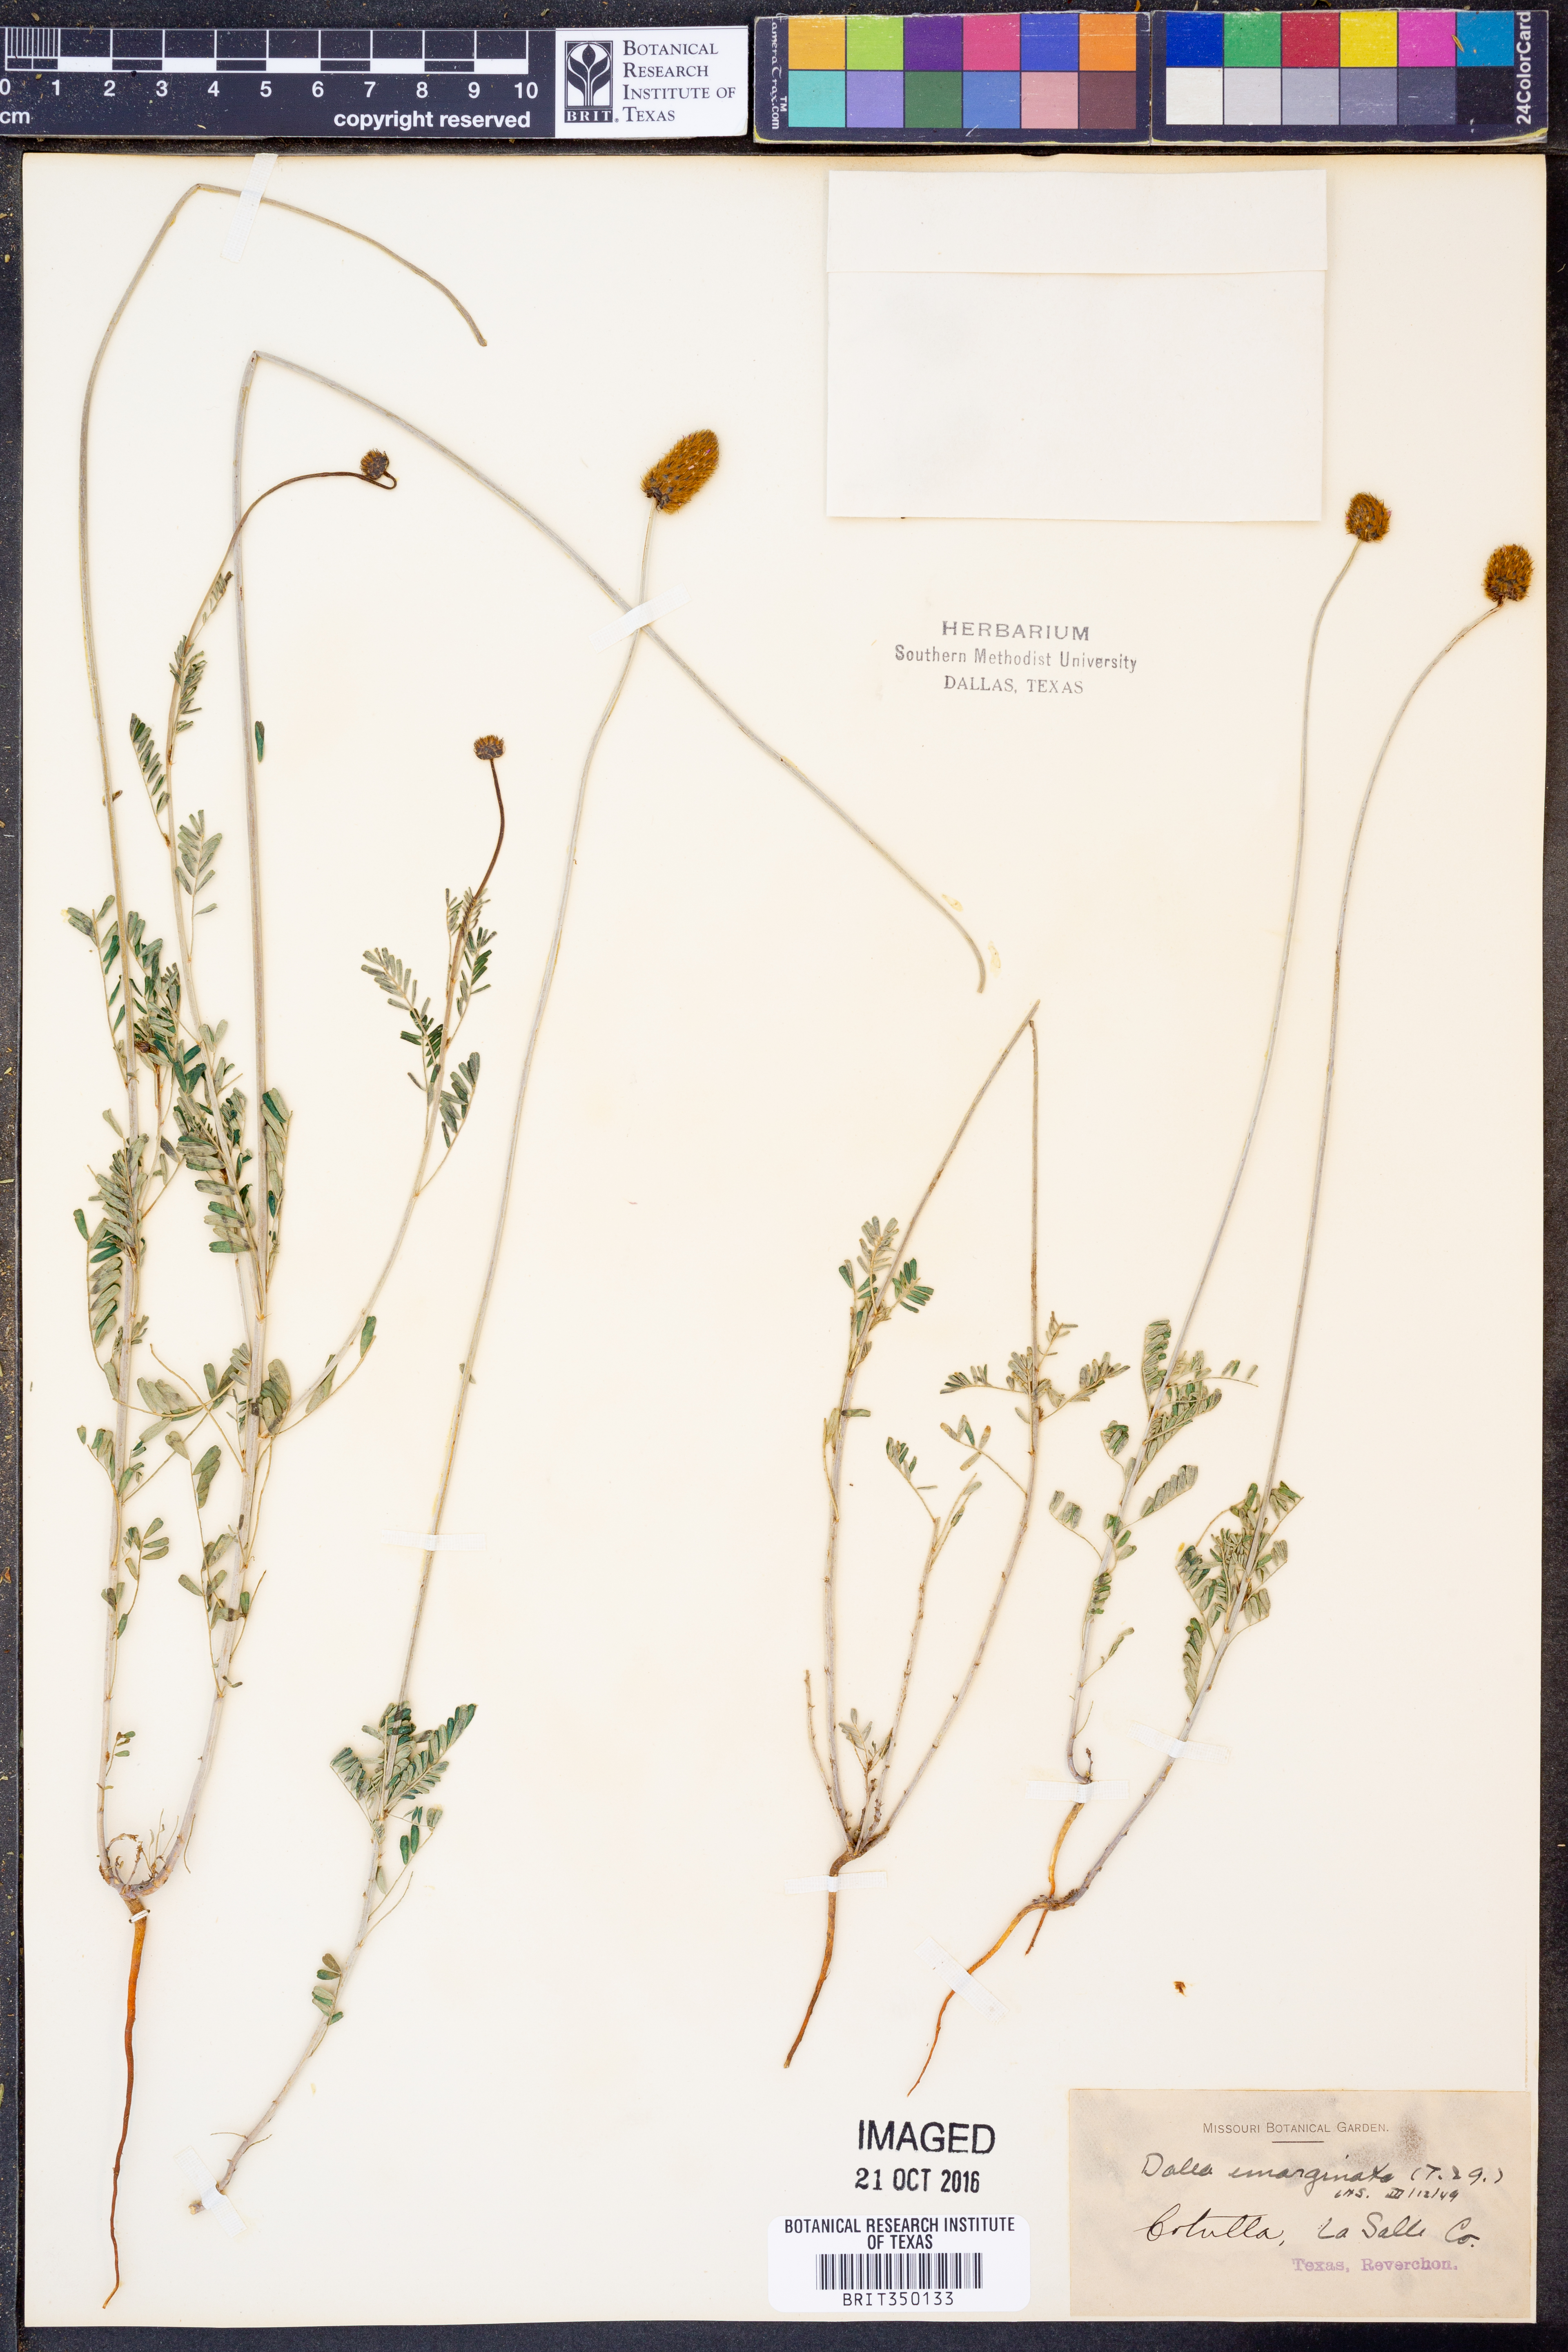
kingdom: Plantae
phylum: Tracheophyta
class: Magnoliopsida
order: Fabales
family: Fabaceae
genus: Dalea
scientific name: Dalea emarginata
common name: Wedgeleaf prairie clover
